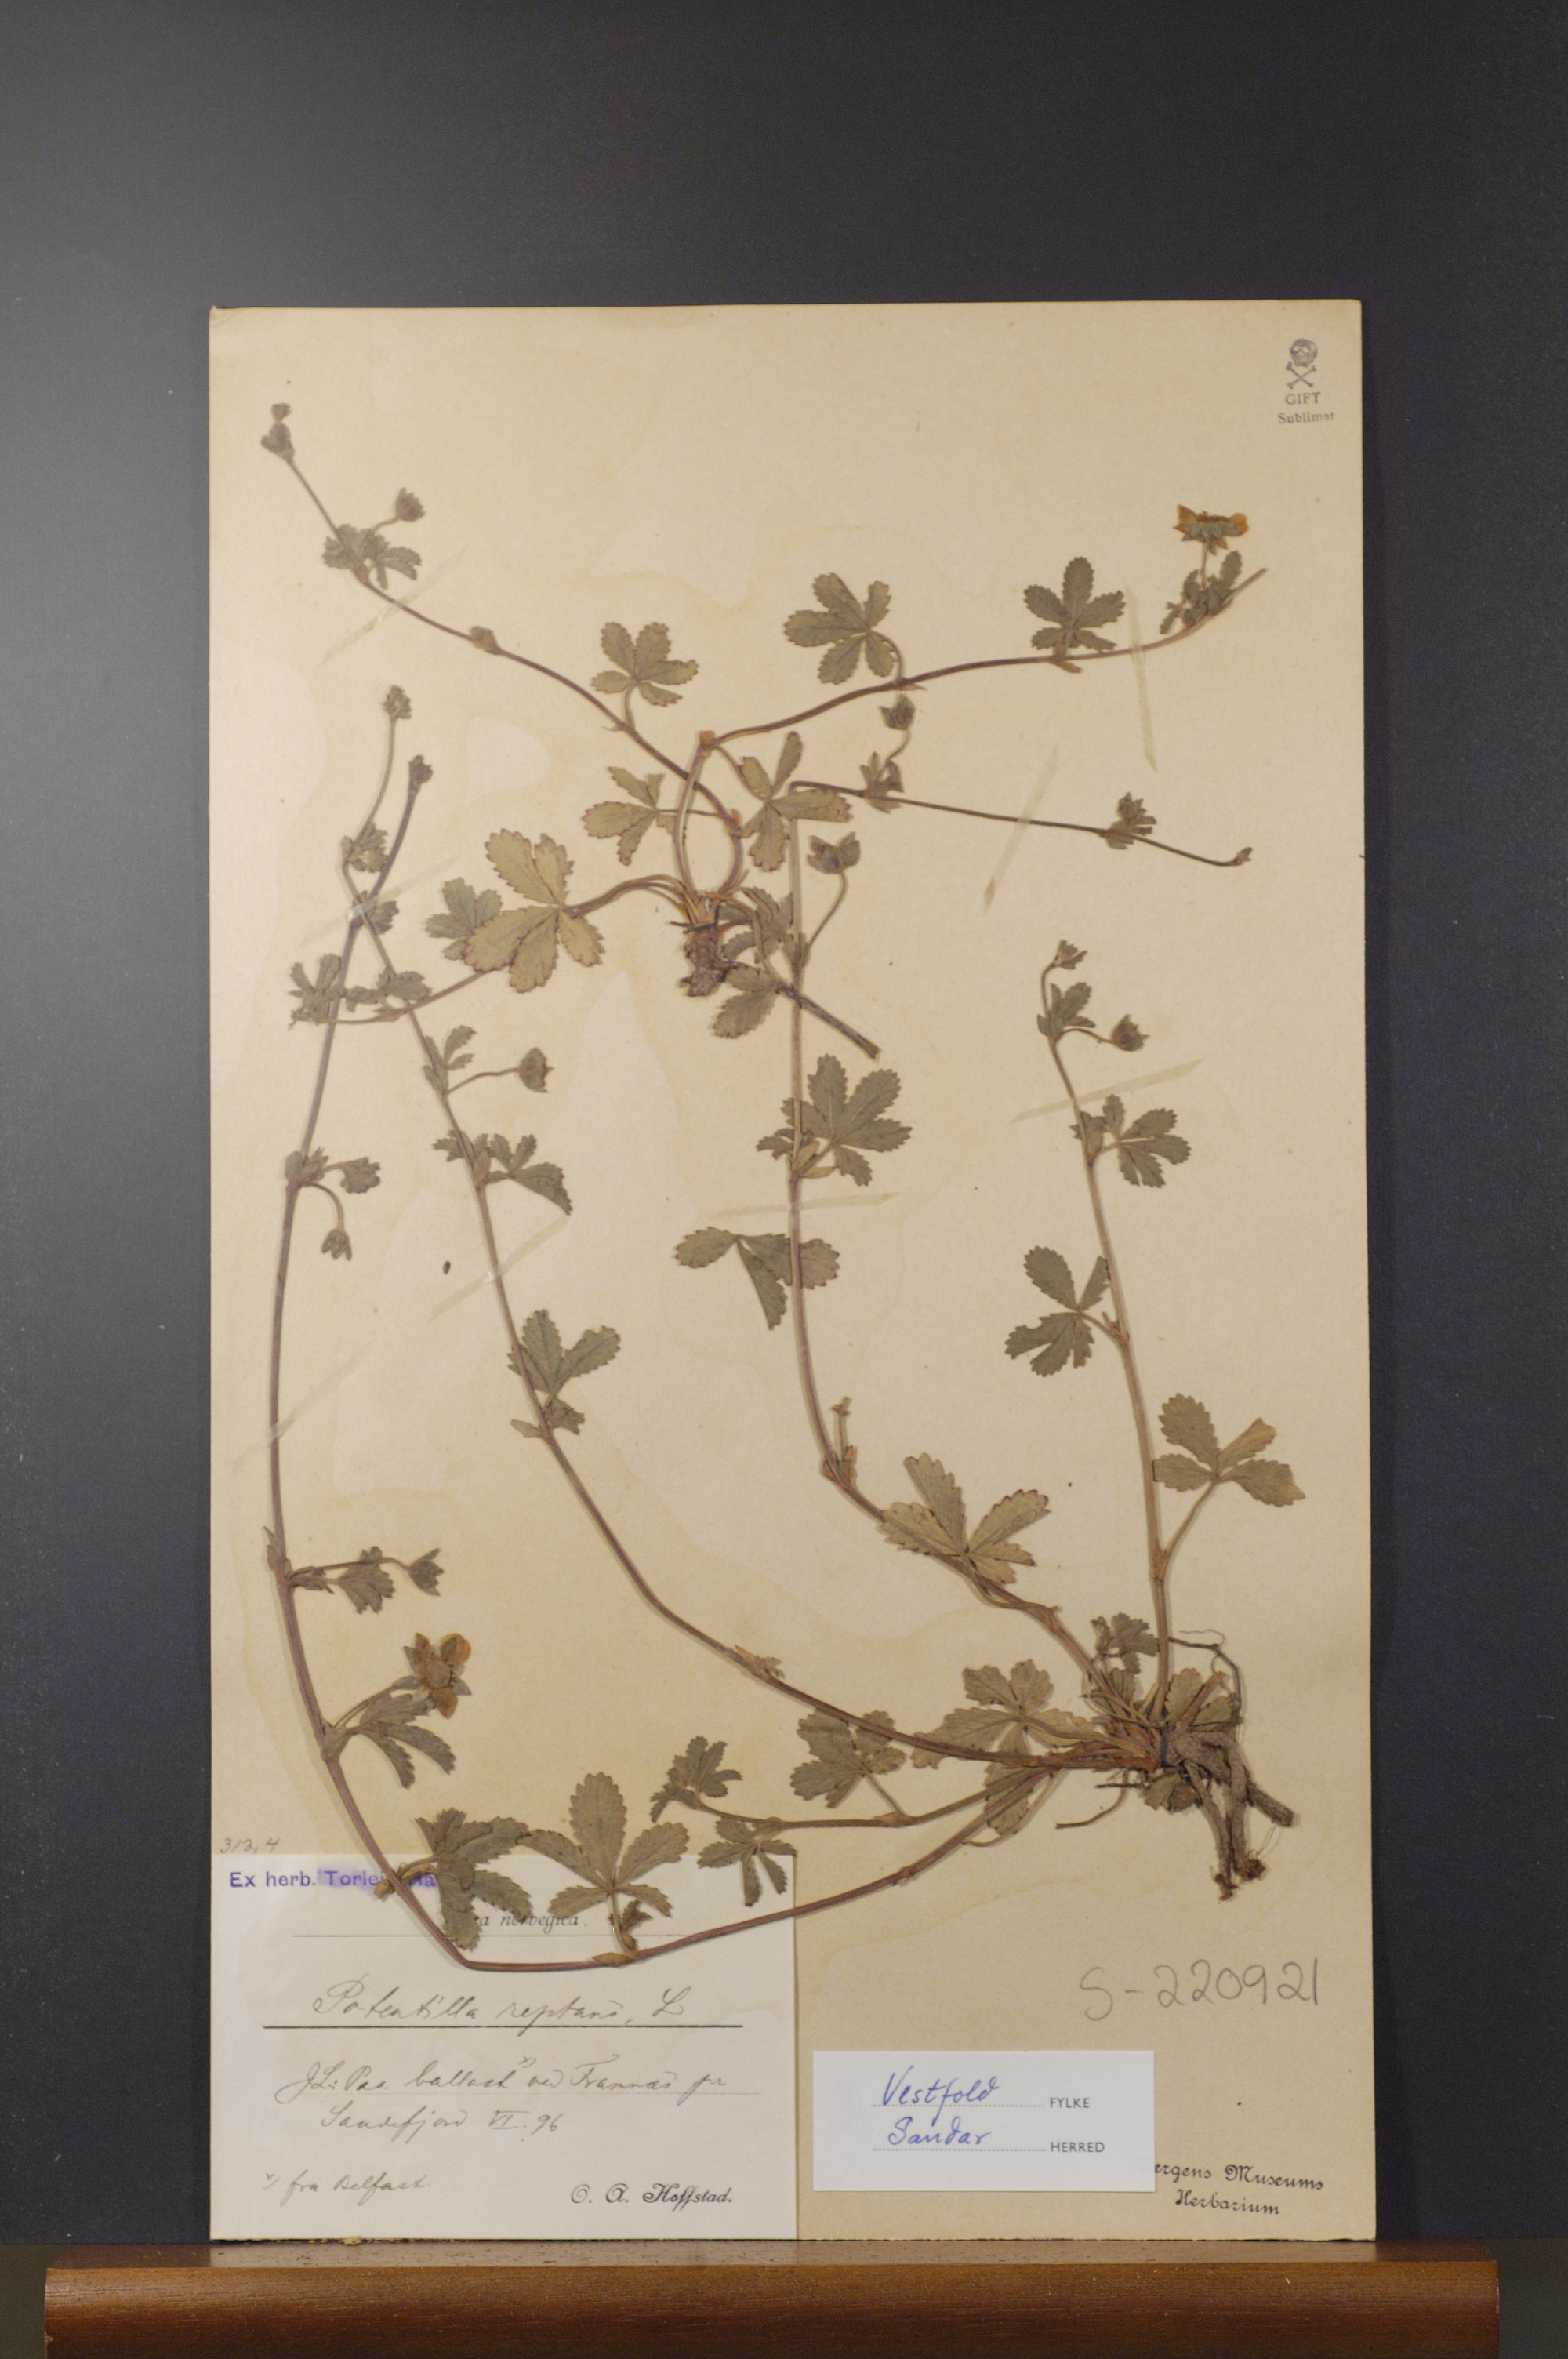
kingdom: Plantae
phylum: Tracheophyta
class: Magnoliopsida
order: Rosales
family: Rosaceae
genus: Potentilla
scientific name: Potentilla reptans
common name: Creeping cinquefoil
